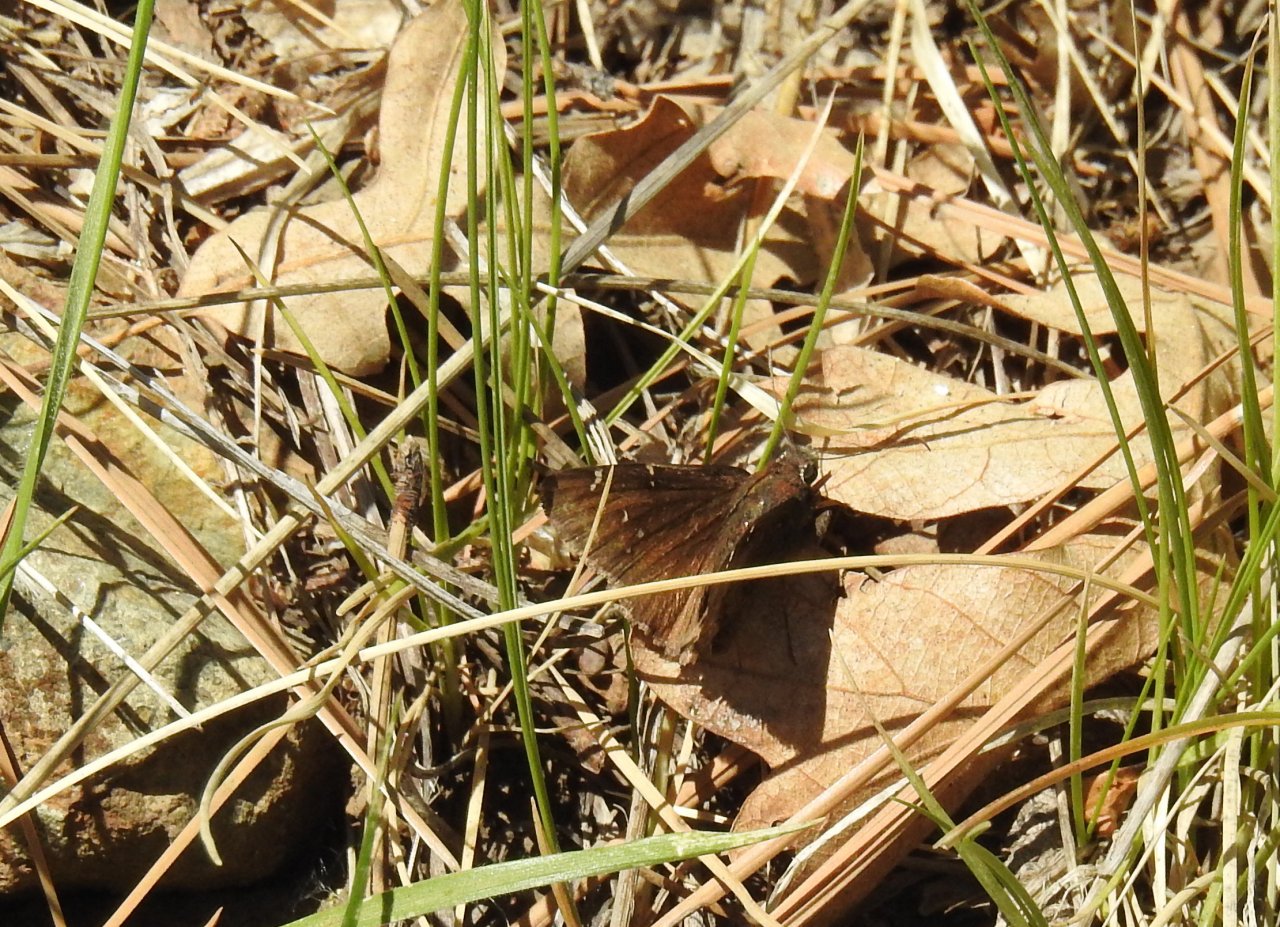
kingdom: Animalia
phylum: Arthropoda
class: Insecta
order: Lepidoptera
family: Hesperiidae
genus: Erynnis
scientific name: Erynnis
